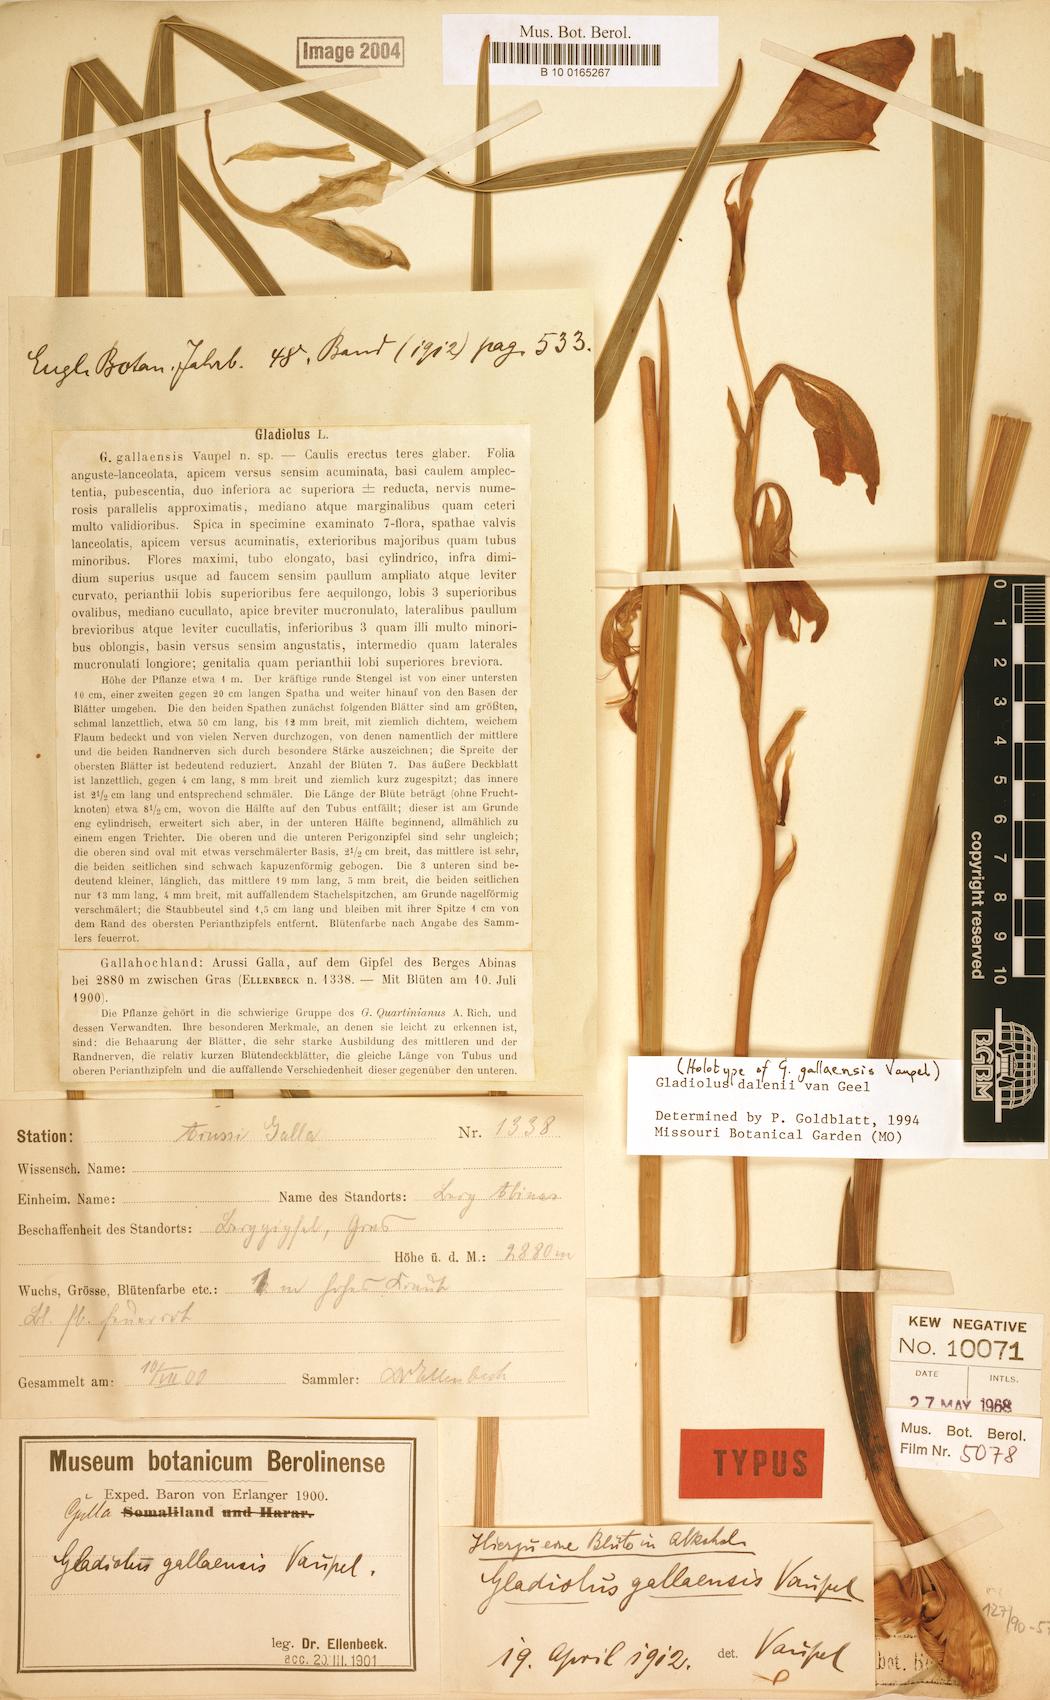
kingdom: Plantae
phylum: Tracheophyta
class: Liliopsida
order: Asparagales
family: Iridaceae
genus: Gladiolus
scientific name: Gladiolus dalenii
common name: Cornflag
